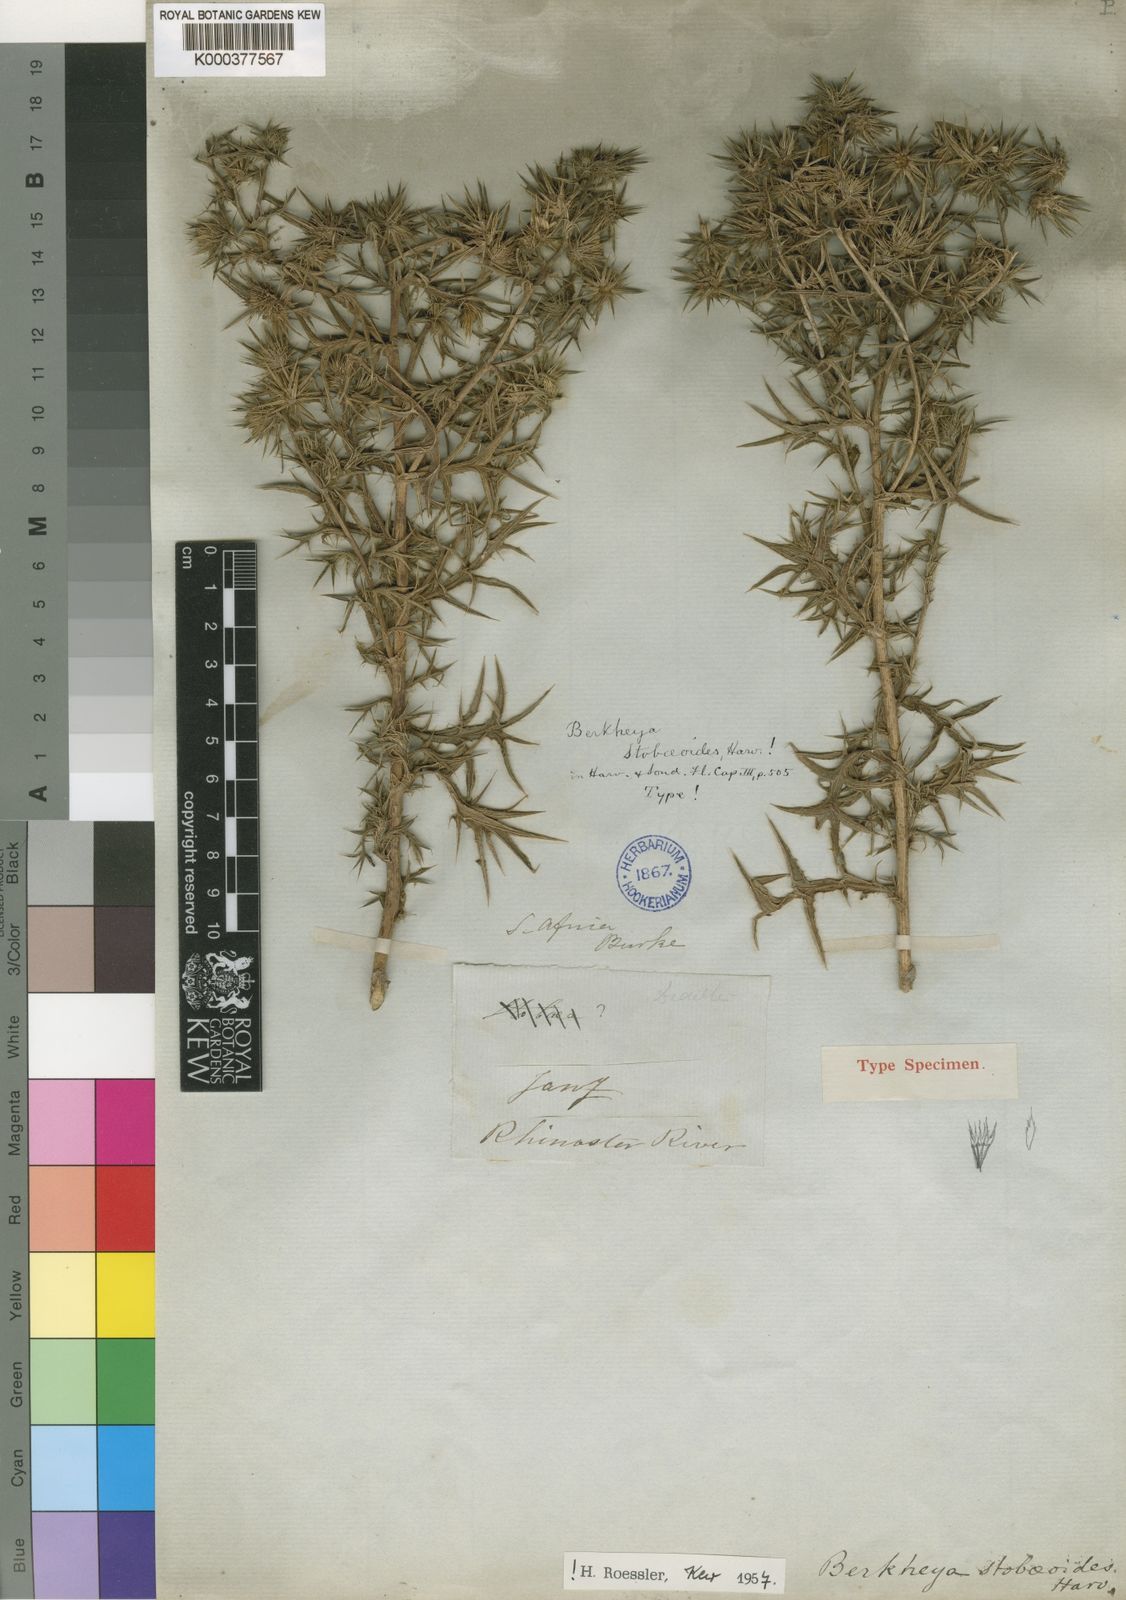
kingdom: Plantae
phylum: Tracheophyta
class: Magnoliopsida
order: Asterales
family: Asteraceae
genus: Berkheya
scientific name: Berkheya pinnatifida
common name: Lobed african thistle
